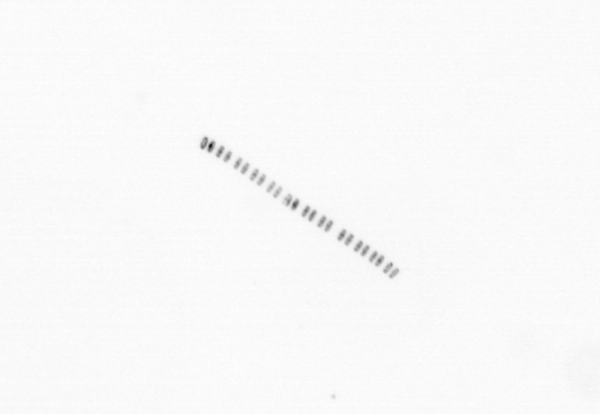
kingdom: Chromista
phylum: Ochrophyta
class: Bacillariophyceae
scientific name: Bacillariophyceae
